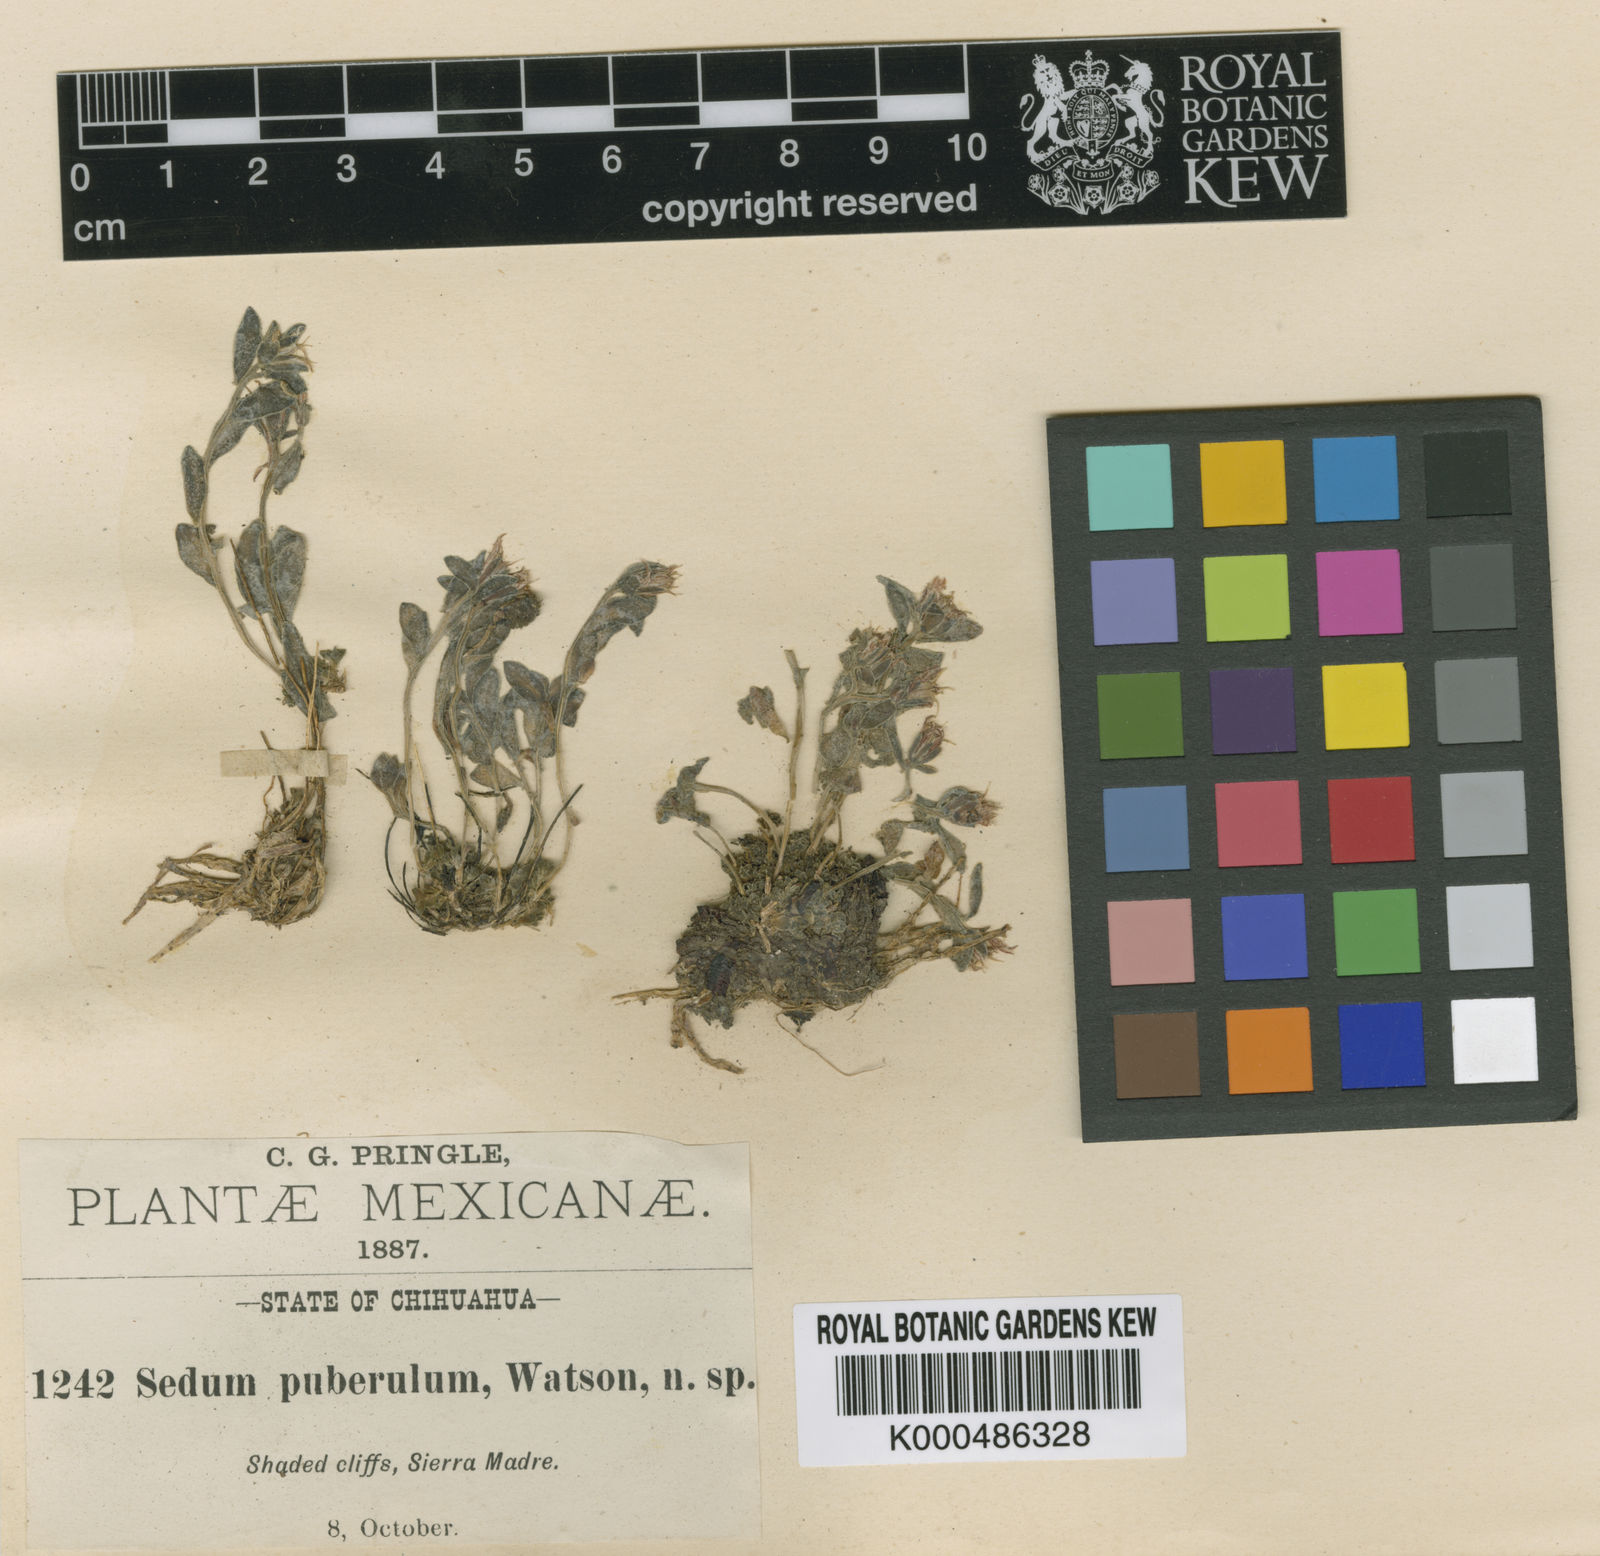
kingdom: Plantae
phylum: Tracheophyta
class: Magnoliopsida
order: Saxifragales
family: Crassulaceae
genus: Sedum
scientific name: Sedum cockerellii
